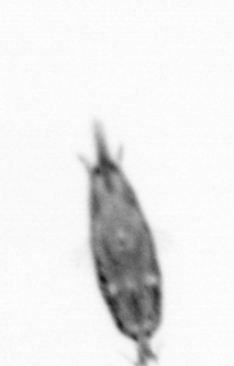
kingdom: Animalia
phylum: Arthropoda
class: Maxillopoda
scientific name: Maxillopoda
